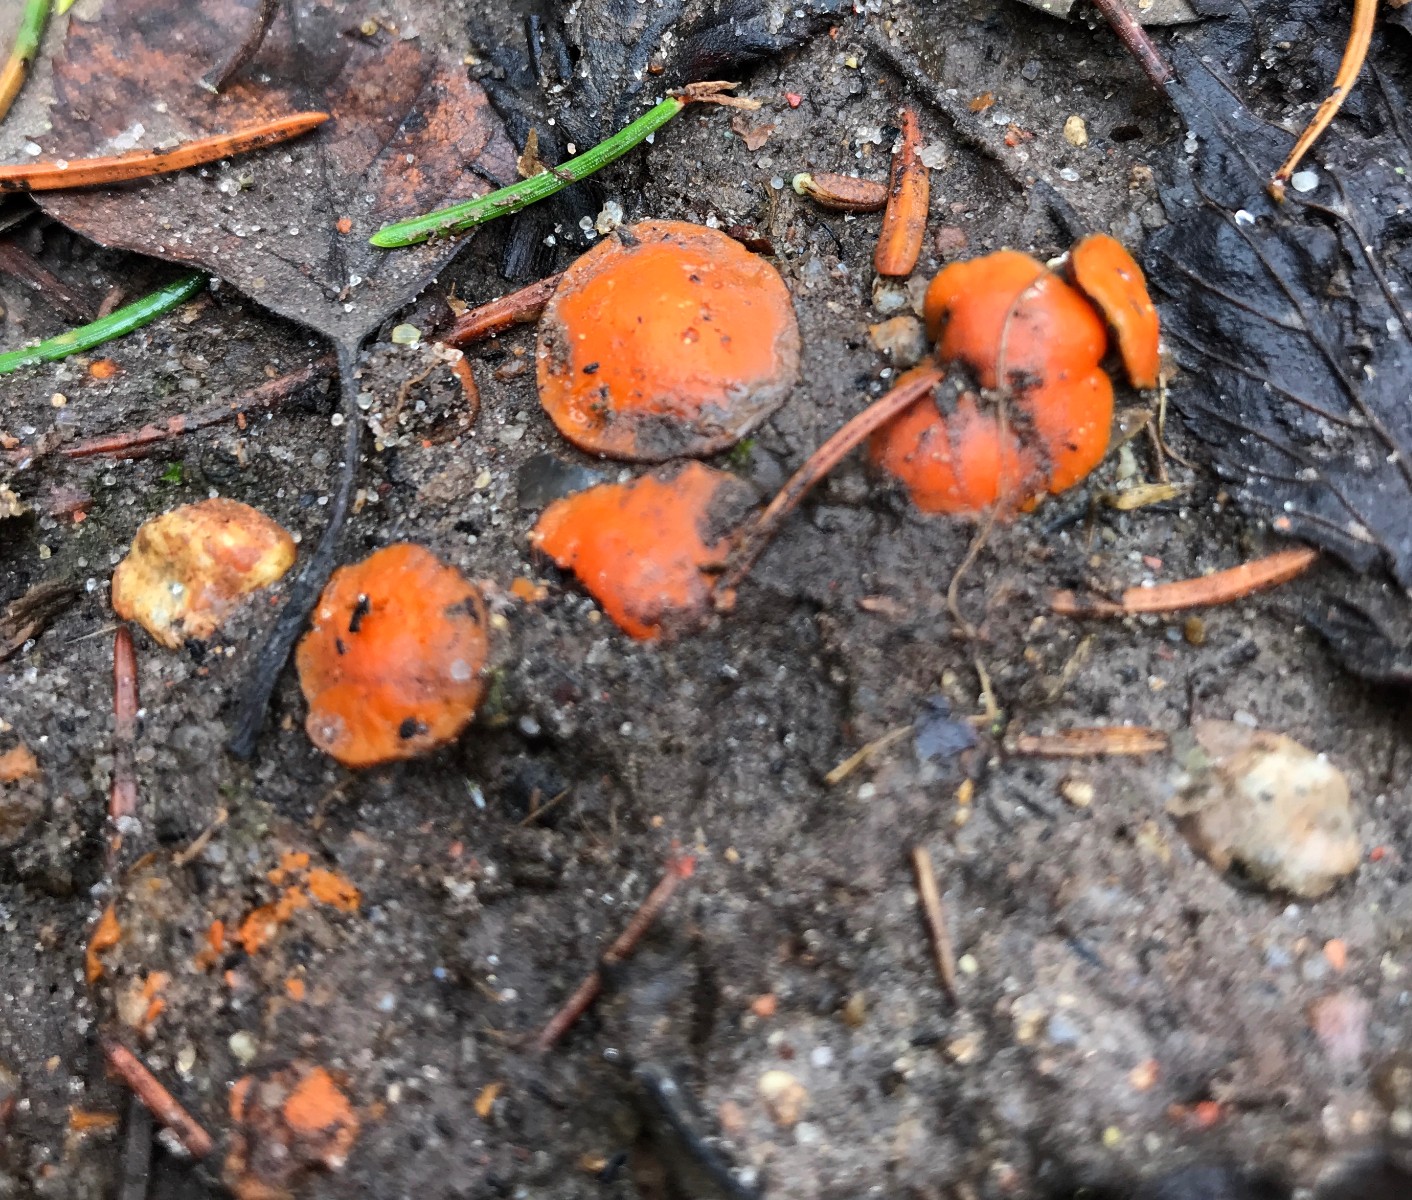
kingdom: Fungi
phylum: Ascomycota
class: Pezizomycetes
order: Pezizales
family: Pyronemataceae
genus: Melastiza
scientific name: Melastiza cornubiensis
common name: mørkrandet rødbæger
